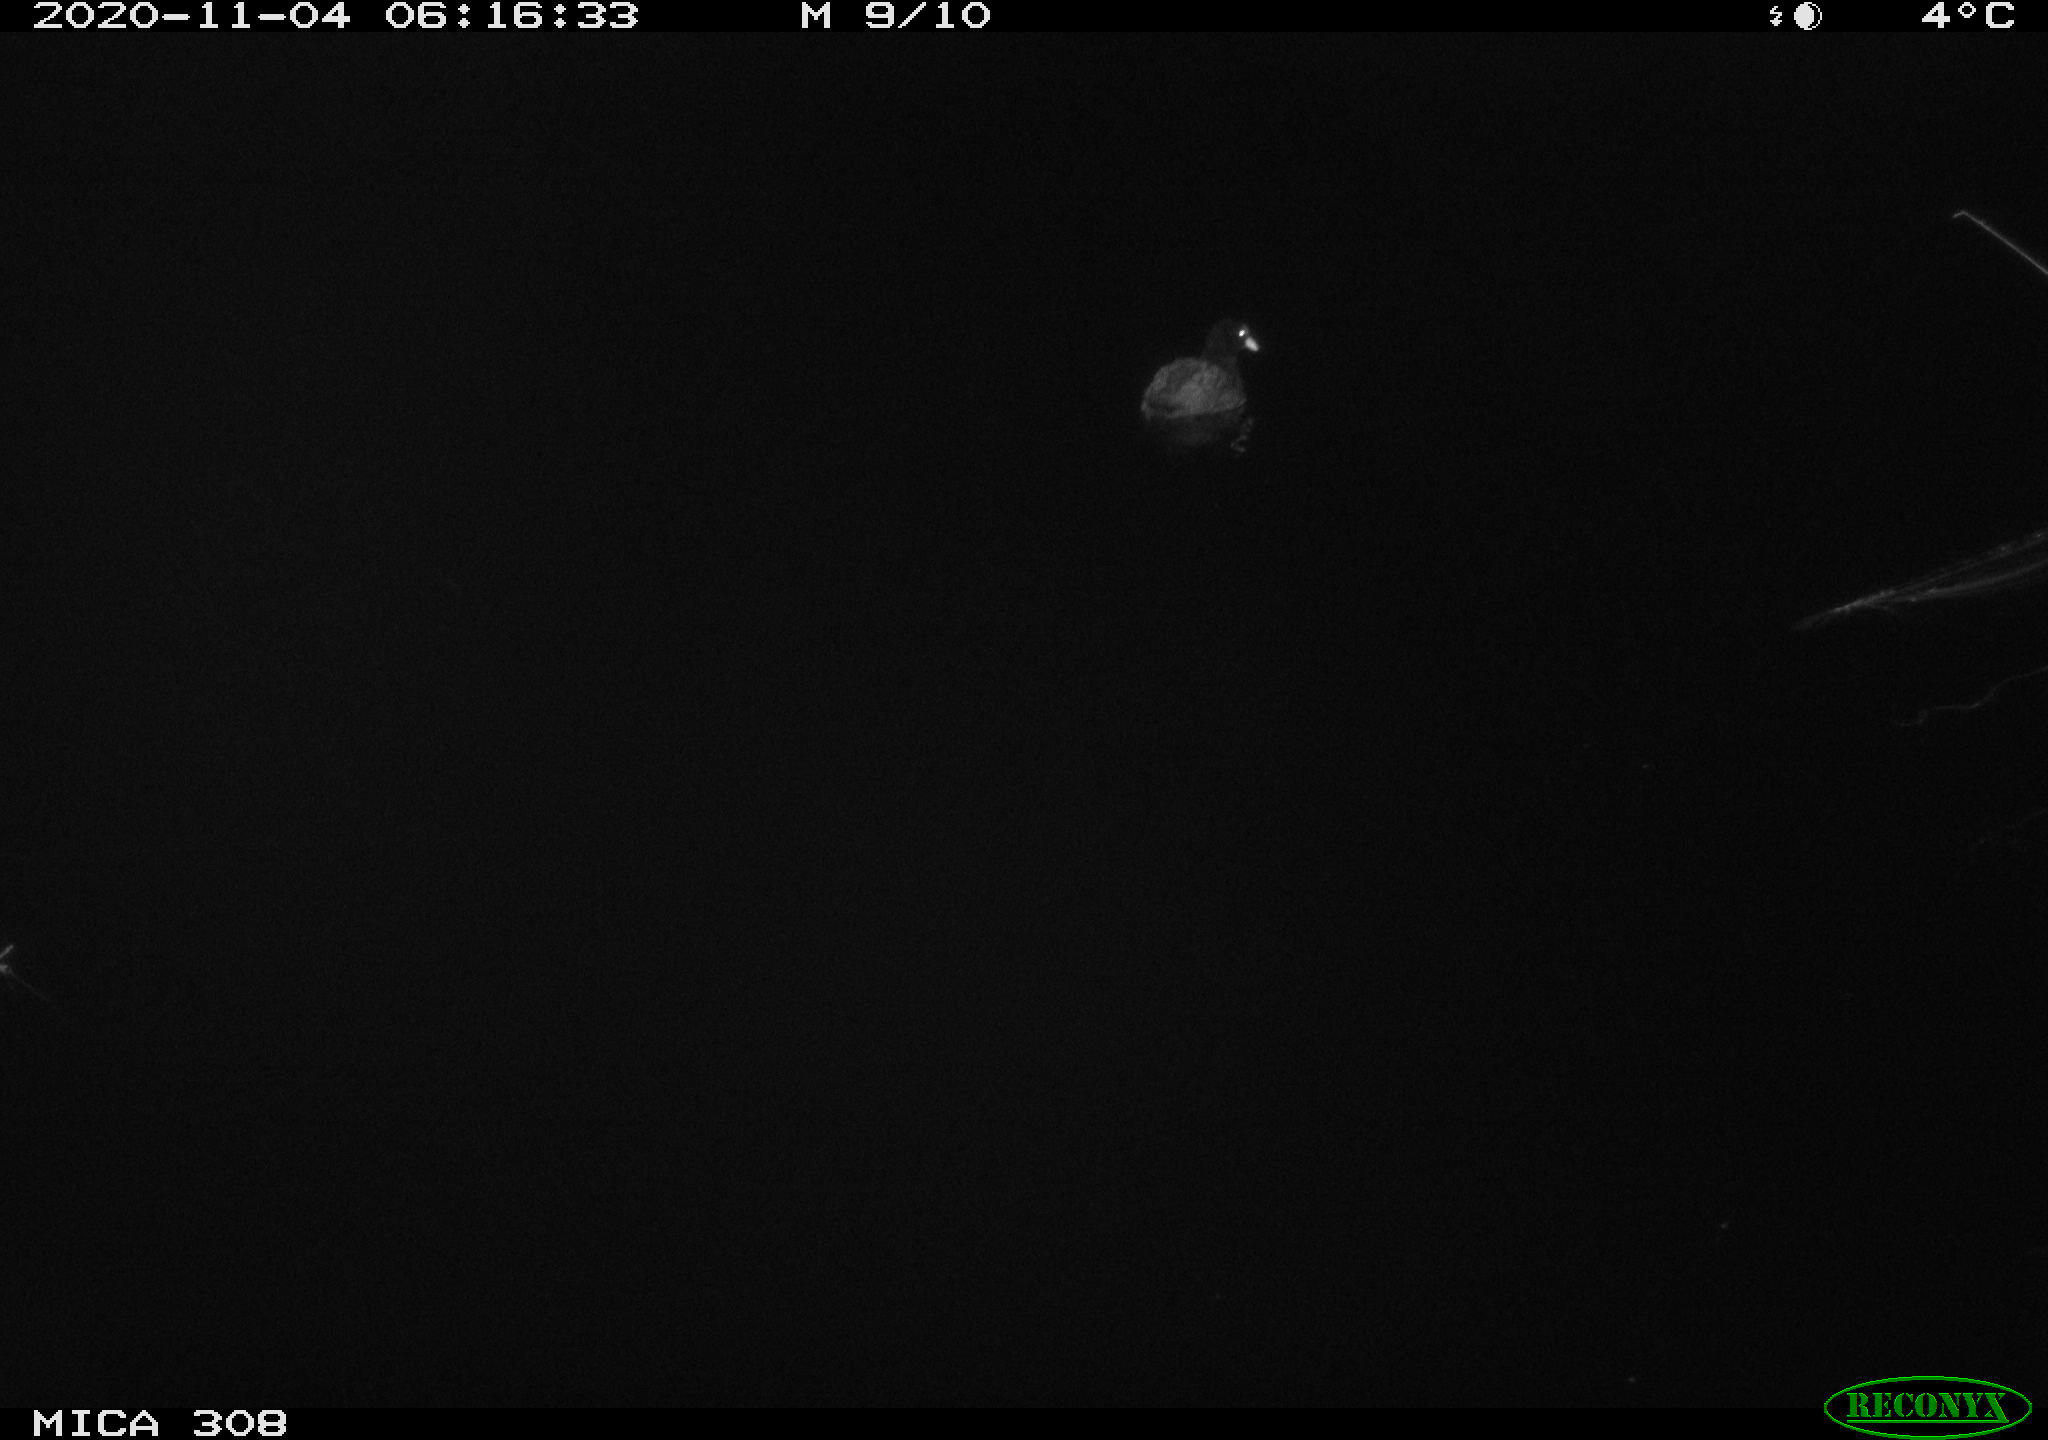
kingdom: Animalia
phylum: Chordata
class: Aves
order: Gruiformes
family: Rallidae
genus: Fulica
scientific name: Fulica atra
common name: Eurasian coot
